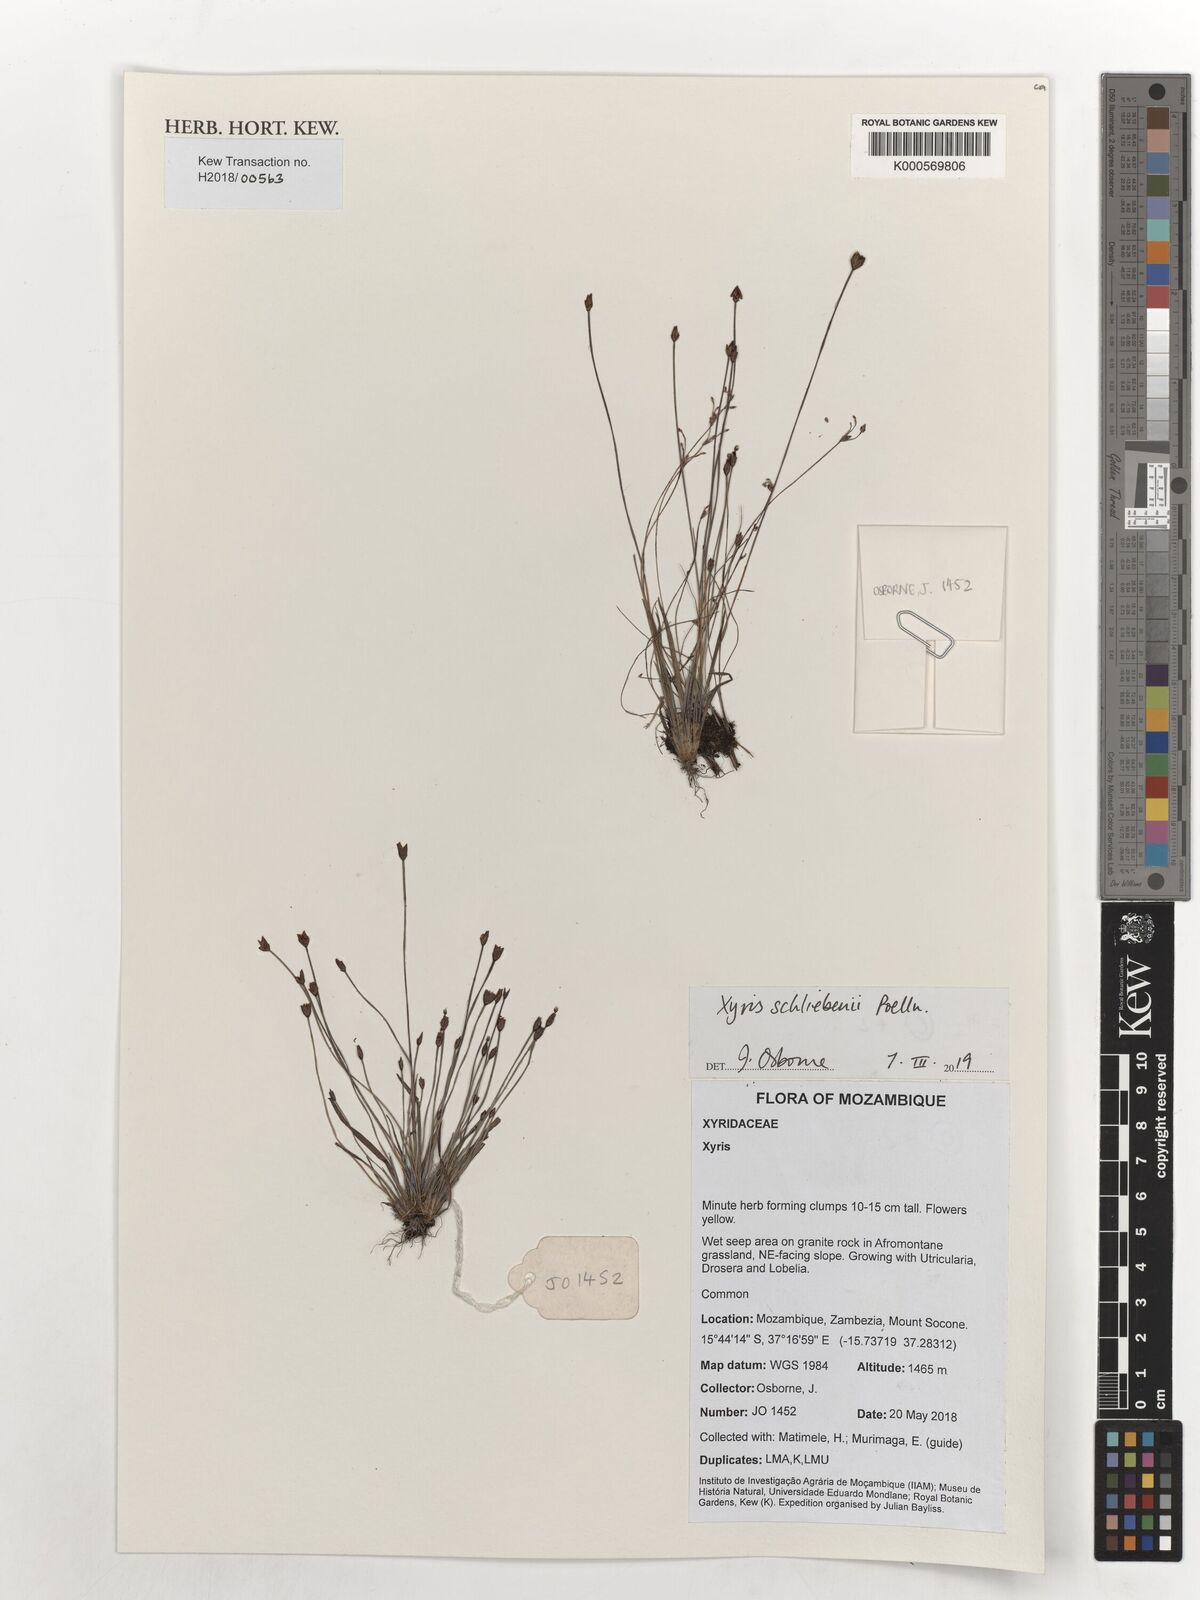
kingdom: Plantae
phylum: Tracheophyta
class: Liliopsida
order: Poales
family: Xyridaceae
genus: Xyris
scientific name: Xyris schliebenii
